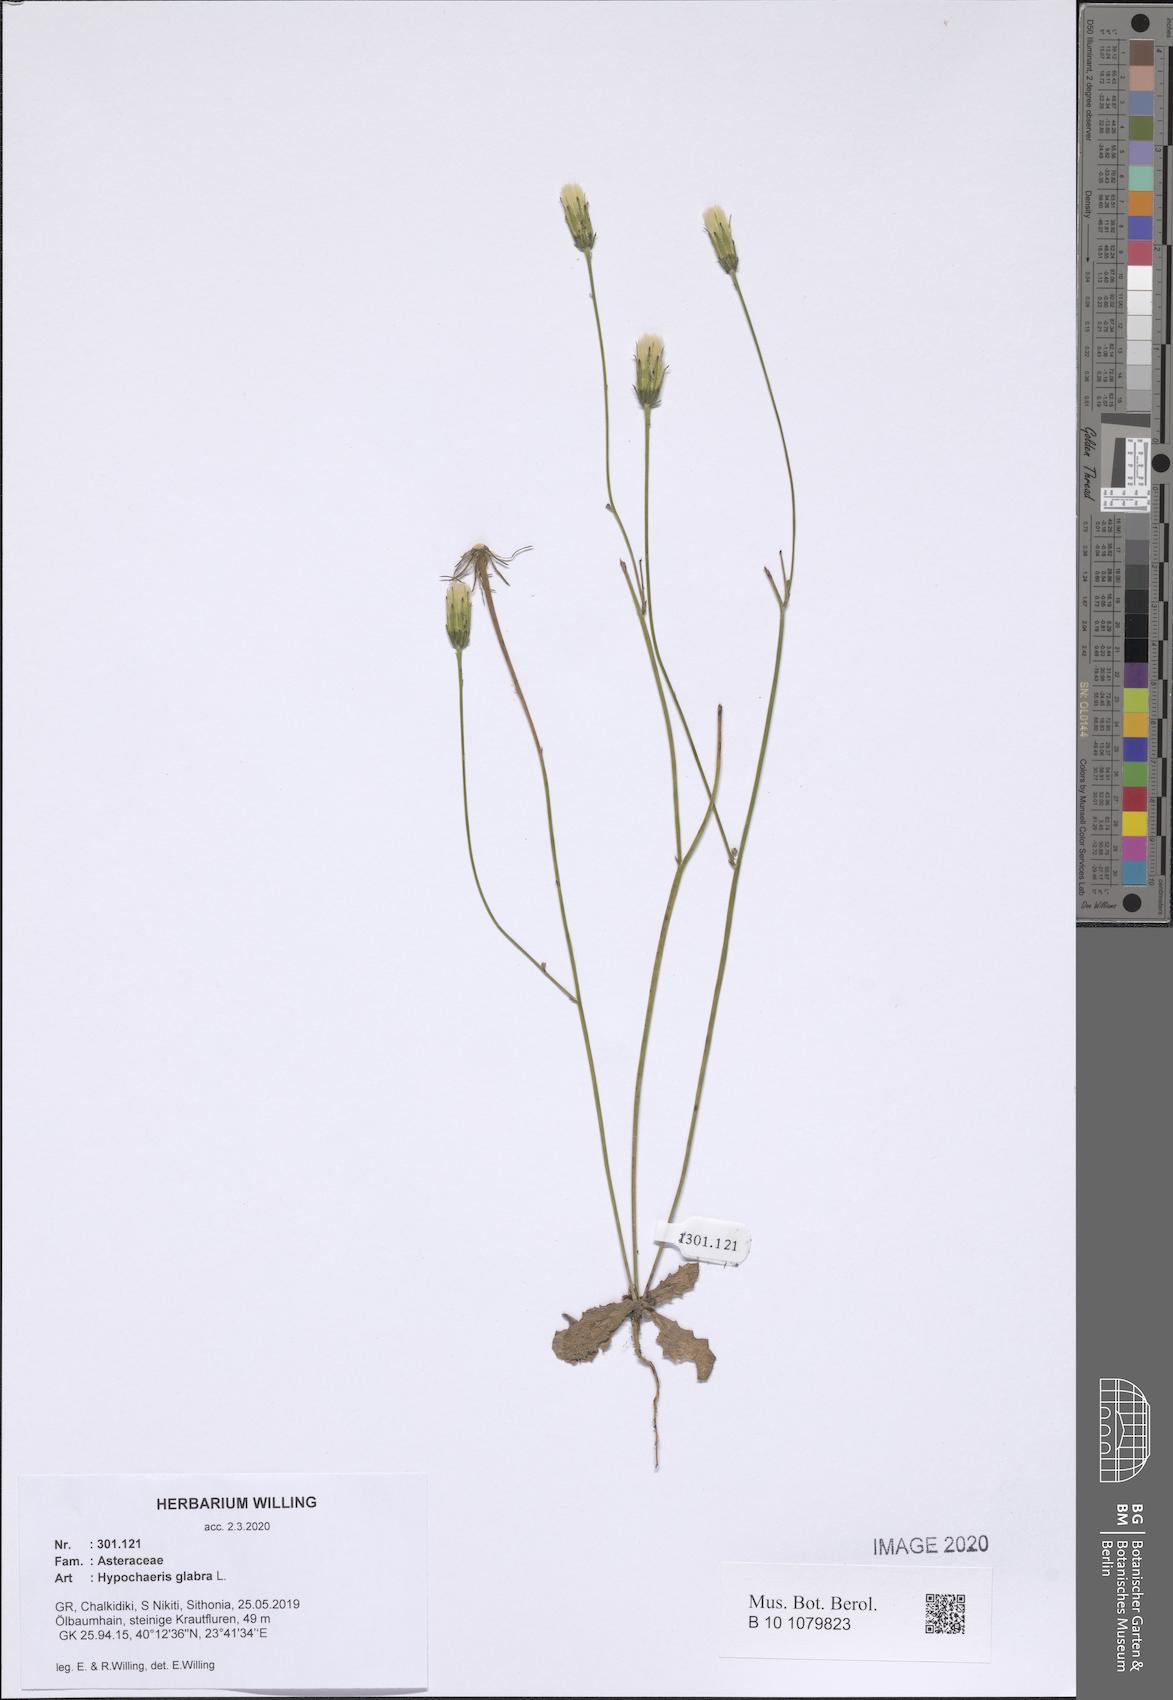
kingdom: Plantae
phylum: Tracheophyta
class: Magnoliopsida
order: Asterales
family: Asteraceae
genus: Hypochaeris
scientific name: Hypochaeris glabra
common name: Smooth catsear
